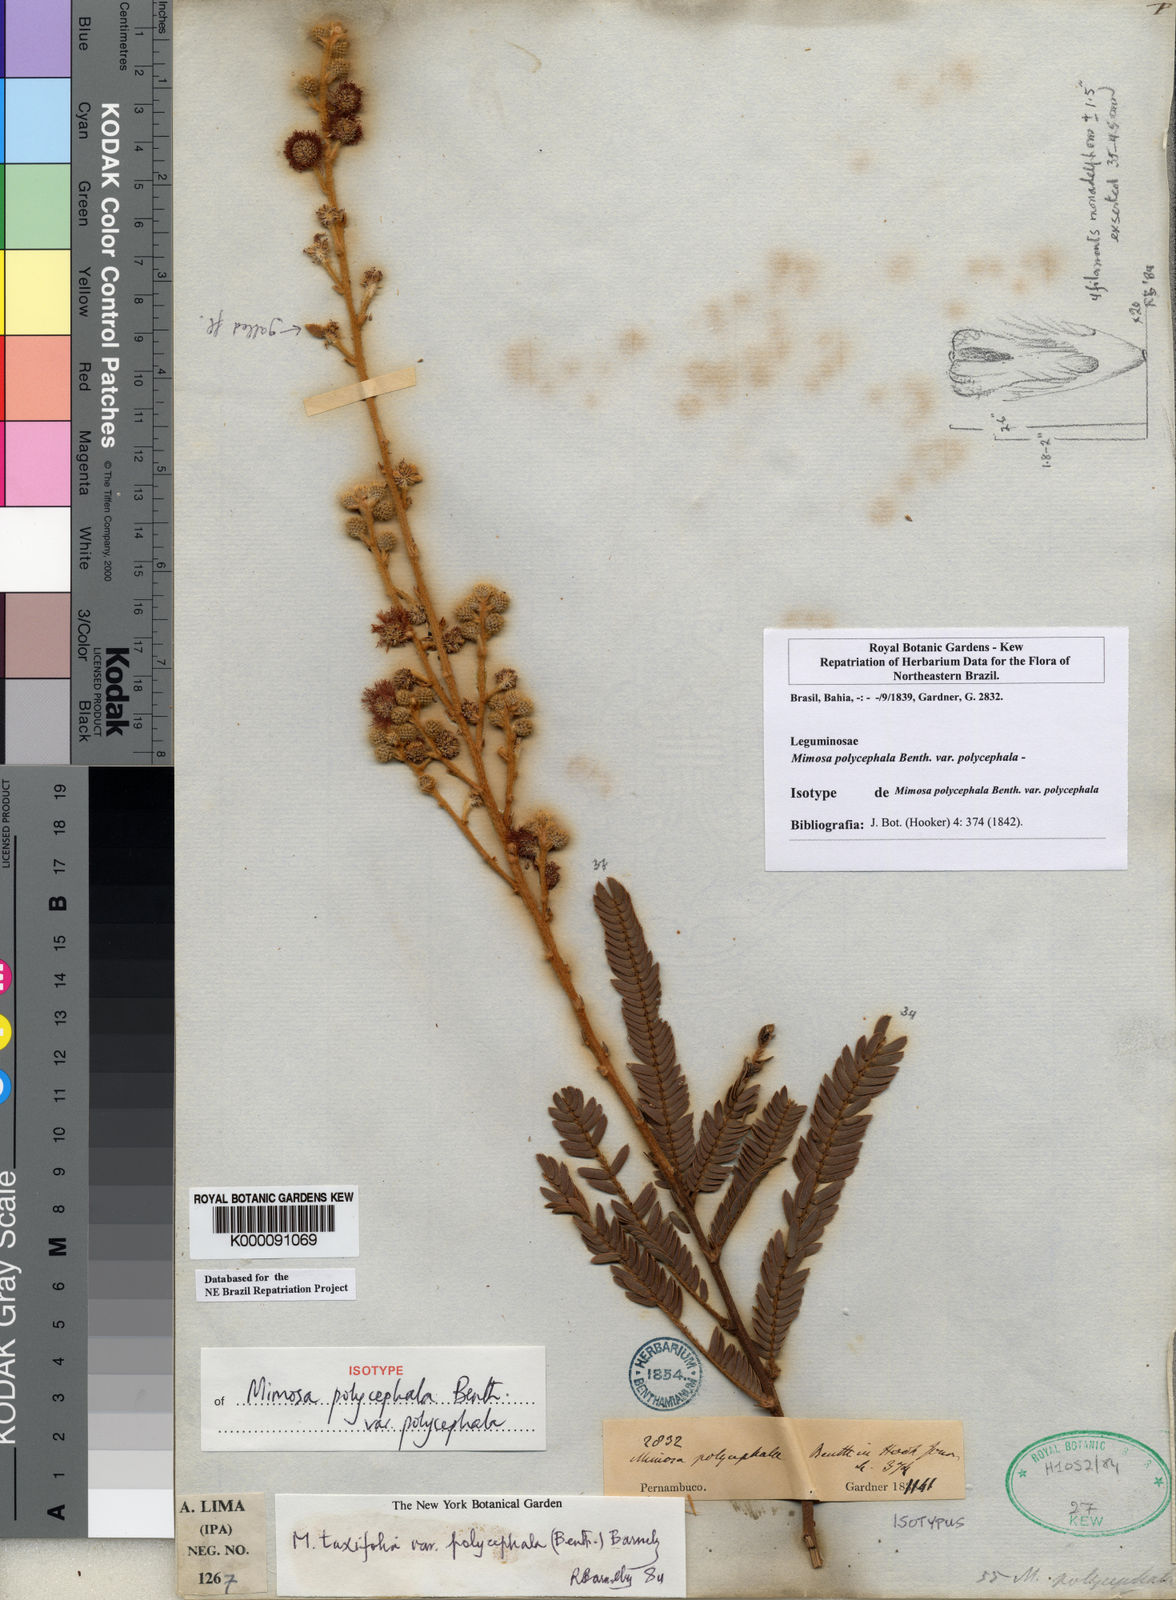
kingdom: Plantae
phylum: Tracheophyta
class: Magnoliopsida
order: Fabales
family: Fabaceae
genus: Mimosa
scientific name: Mimosa polycephala
